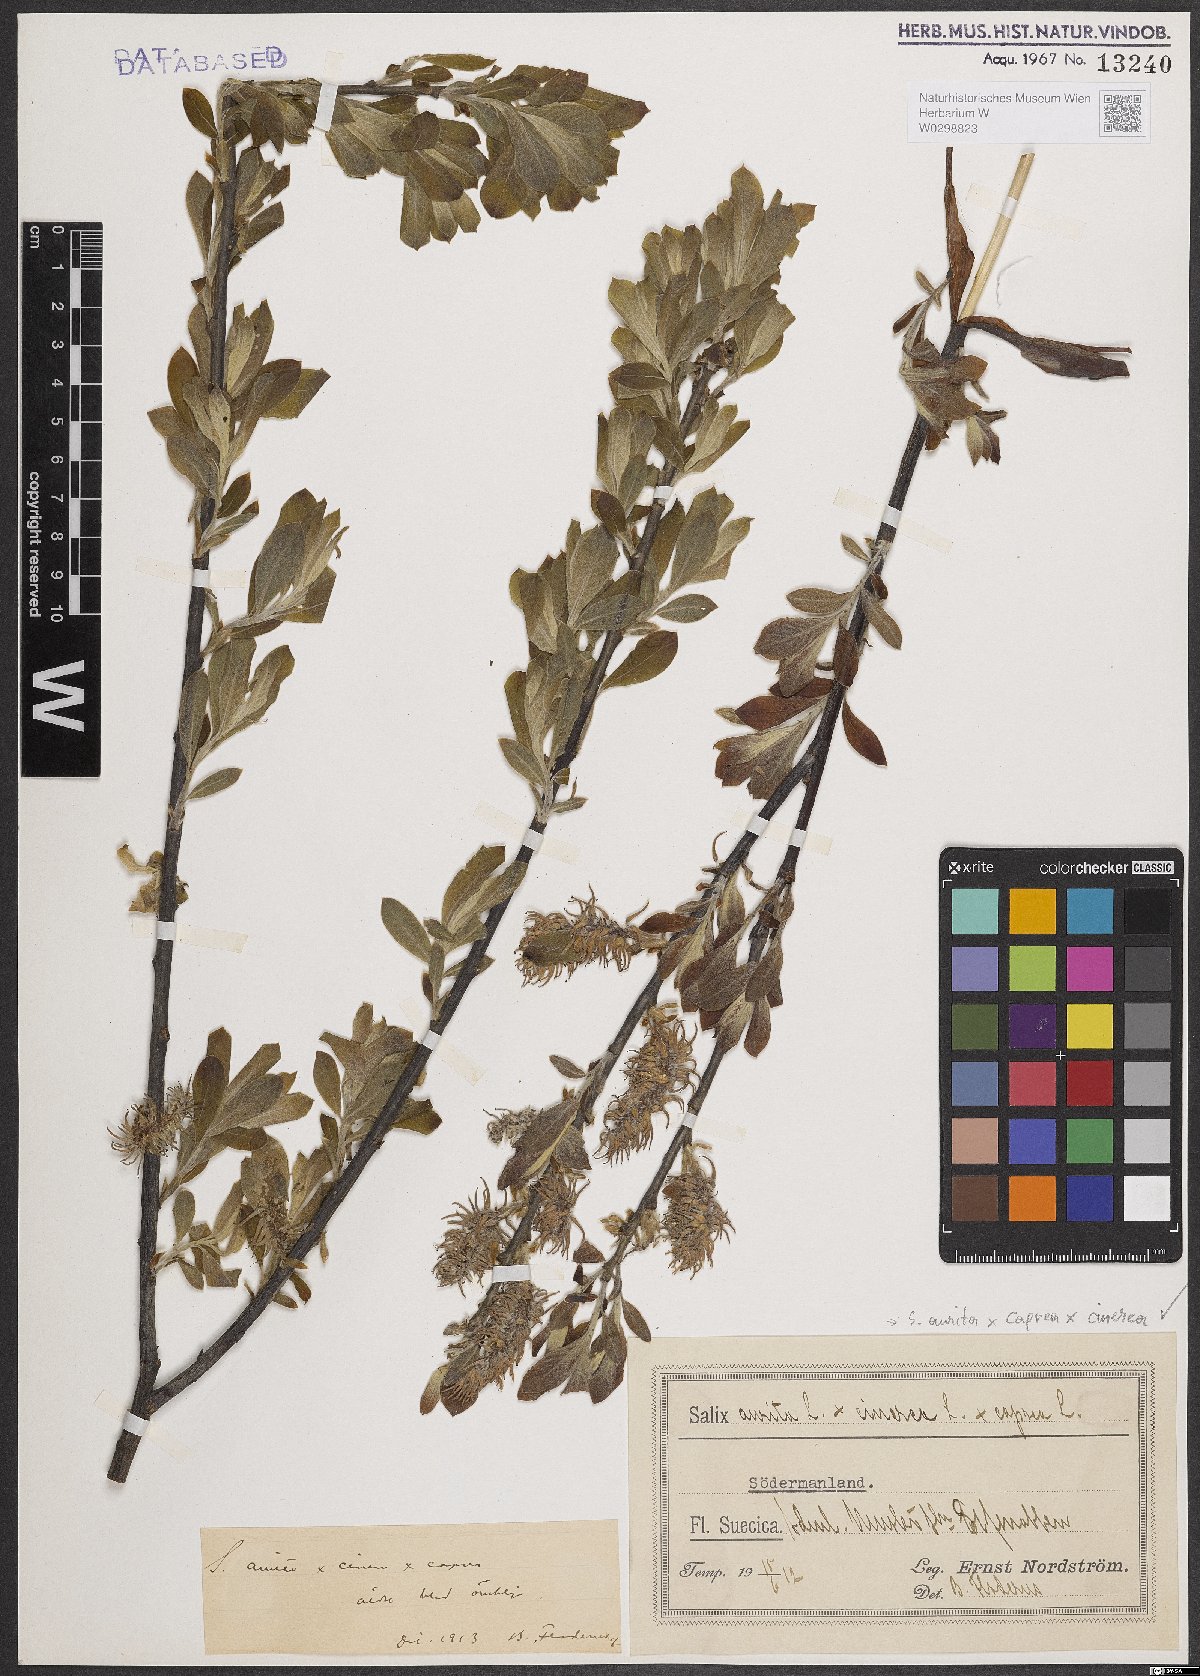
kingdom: Plantae
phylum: Tracheophyta
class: Magnoliopsida
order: Malpighiales
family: Salicaceae
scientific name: Salicaceae
